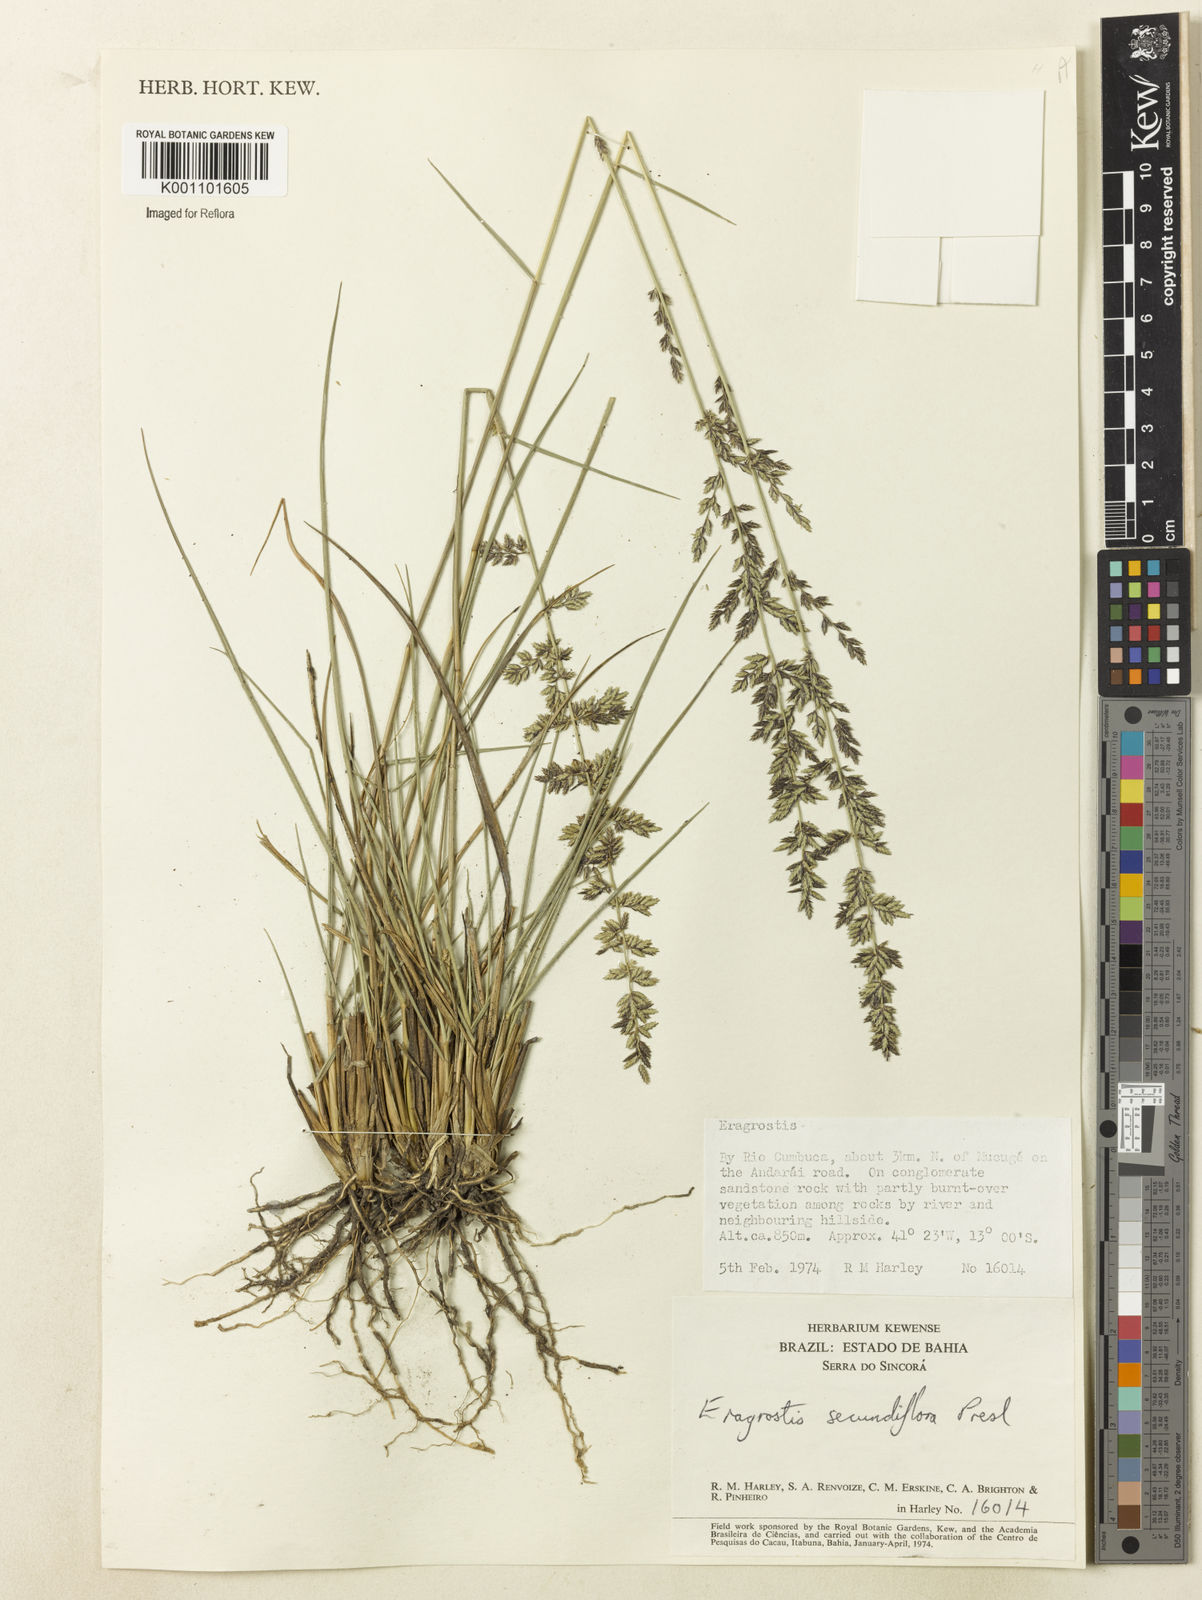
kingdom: Plantae
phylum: Tracheophyta
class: Liliopsida
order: Poales
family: Poaceae
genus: Eragrostis
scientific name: Eragrostis petrensis
